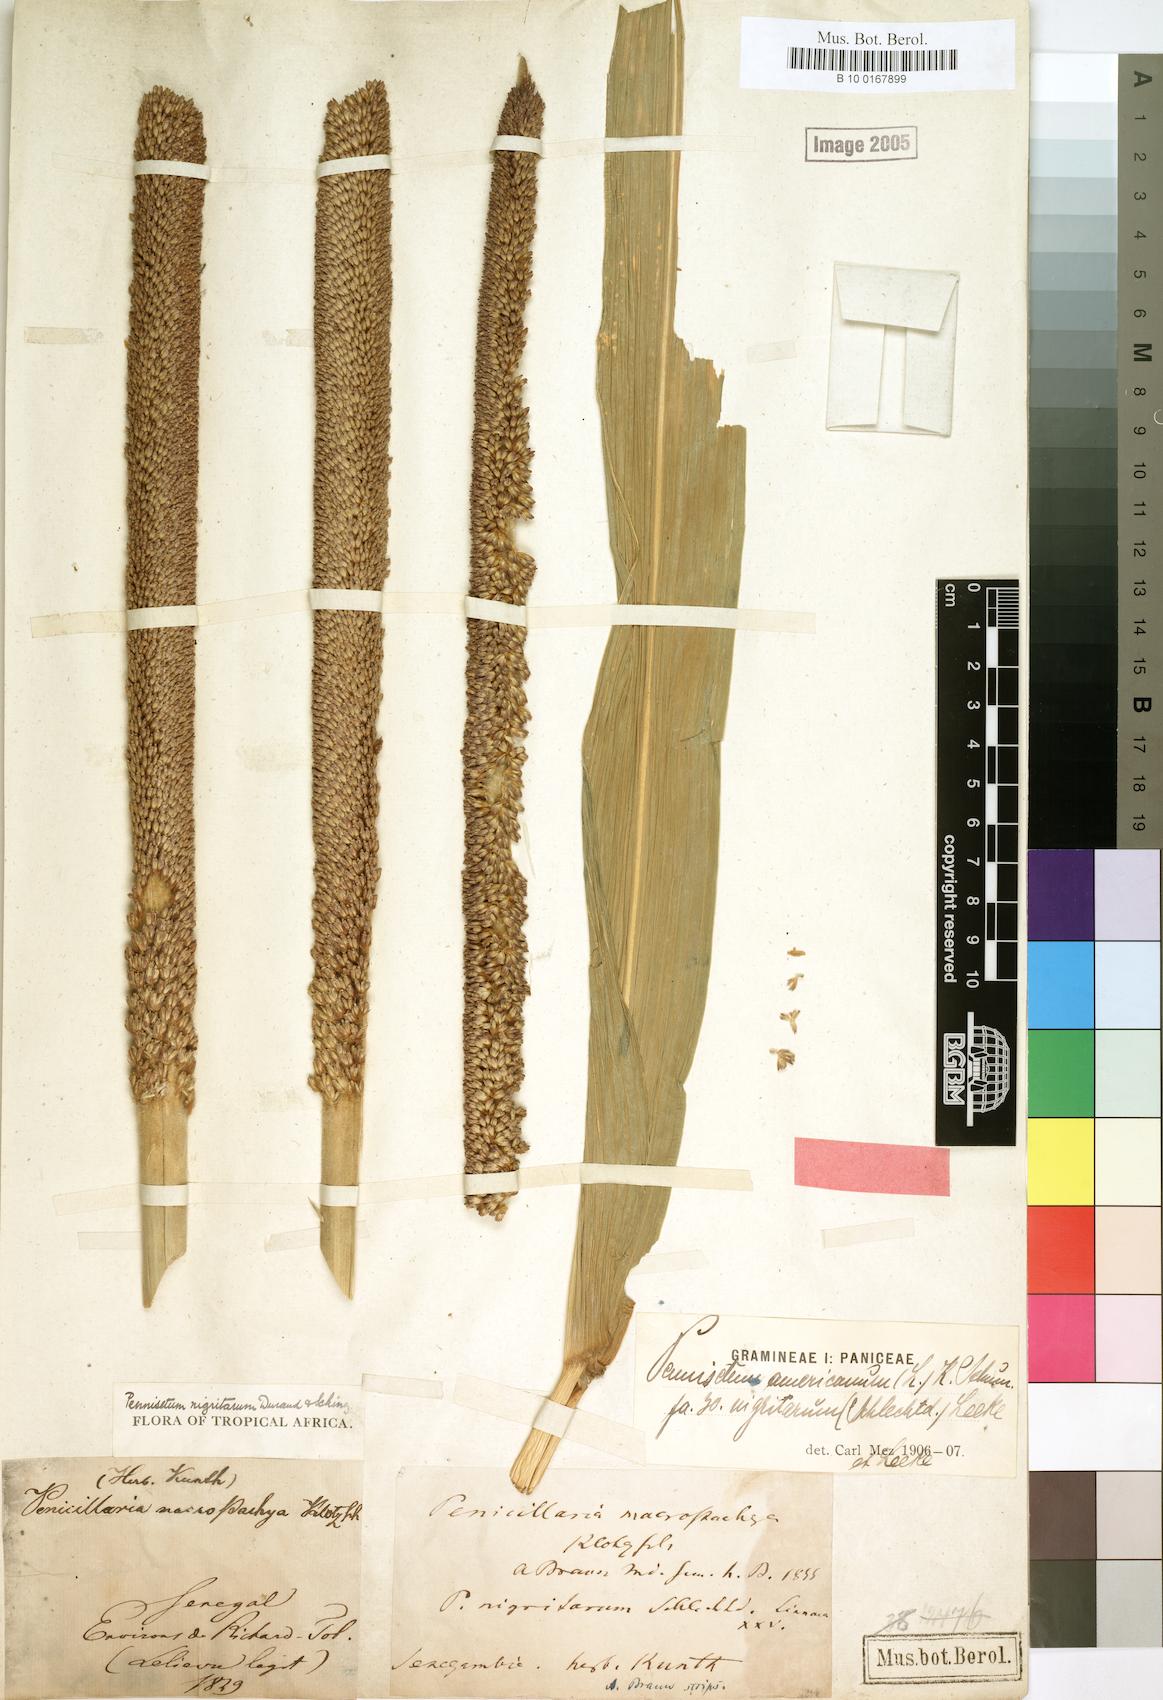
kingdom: Plantae
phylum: Tracheophyta
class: Liliopsida
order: Poales
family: Poaceae
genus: Cenchrus
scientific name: Cenchrus americanus
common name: Pearl millet
